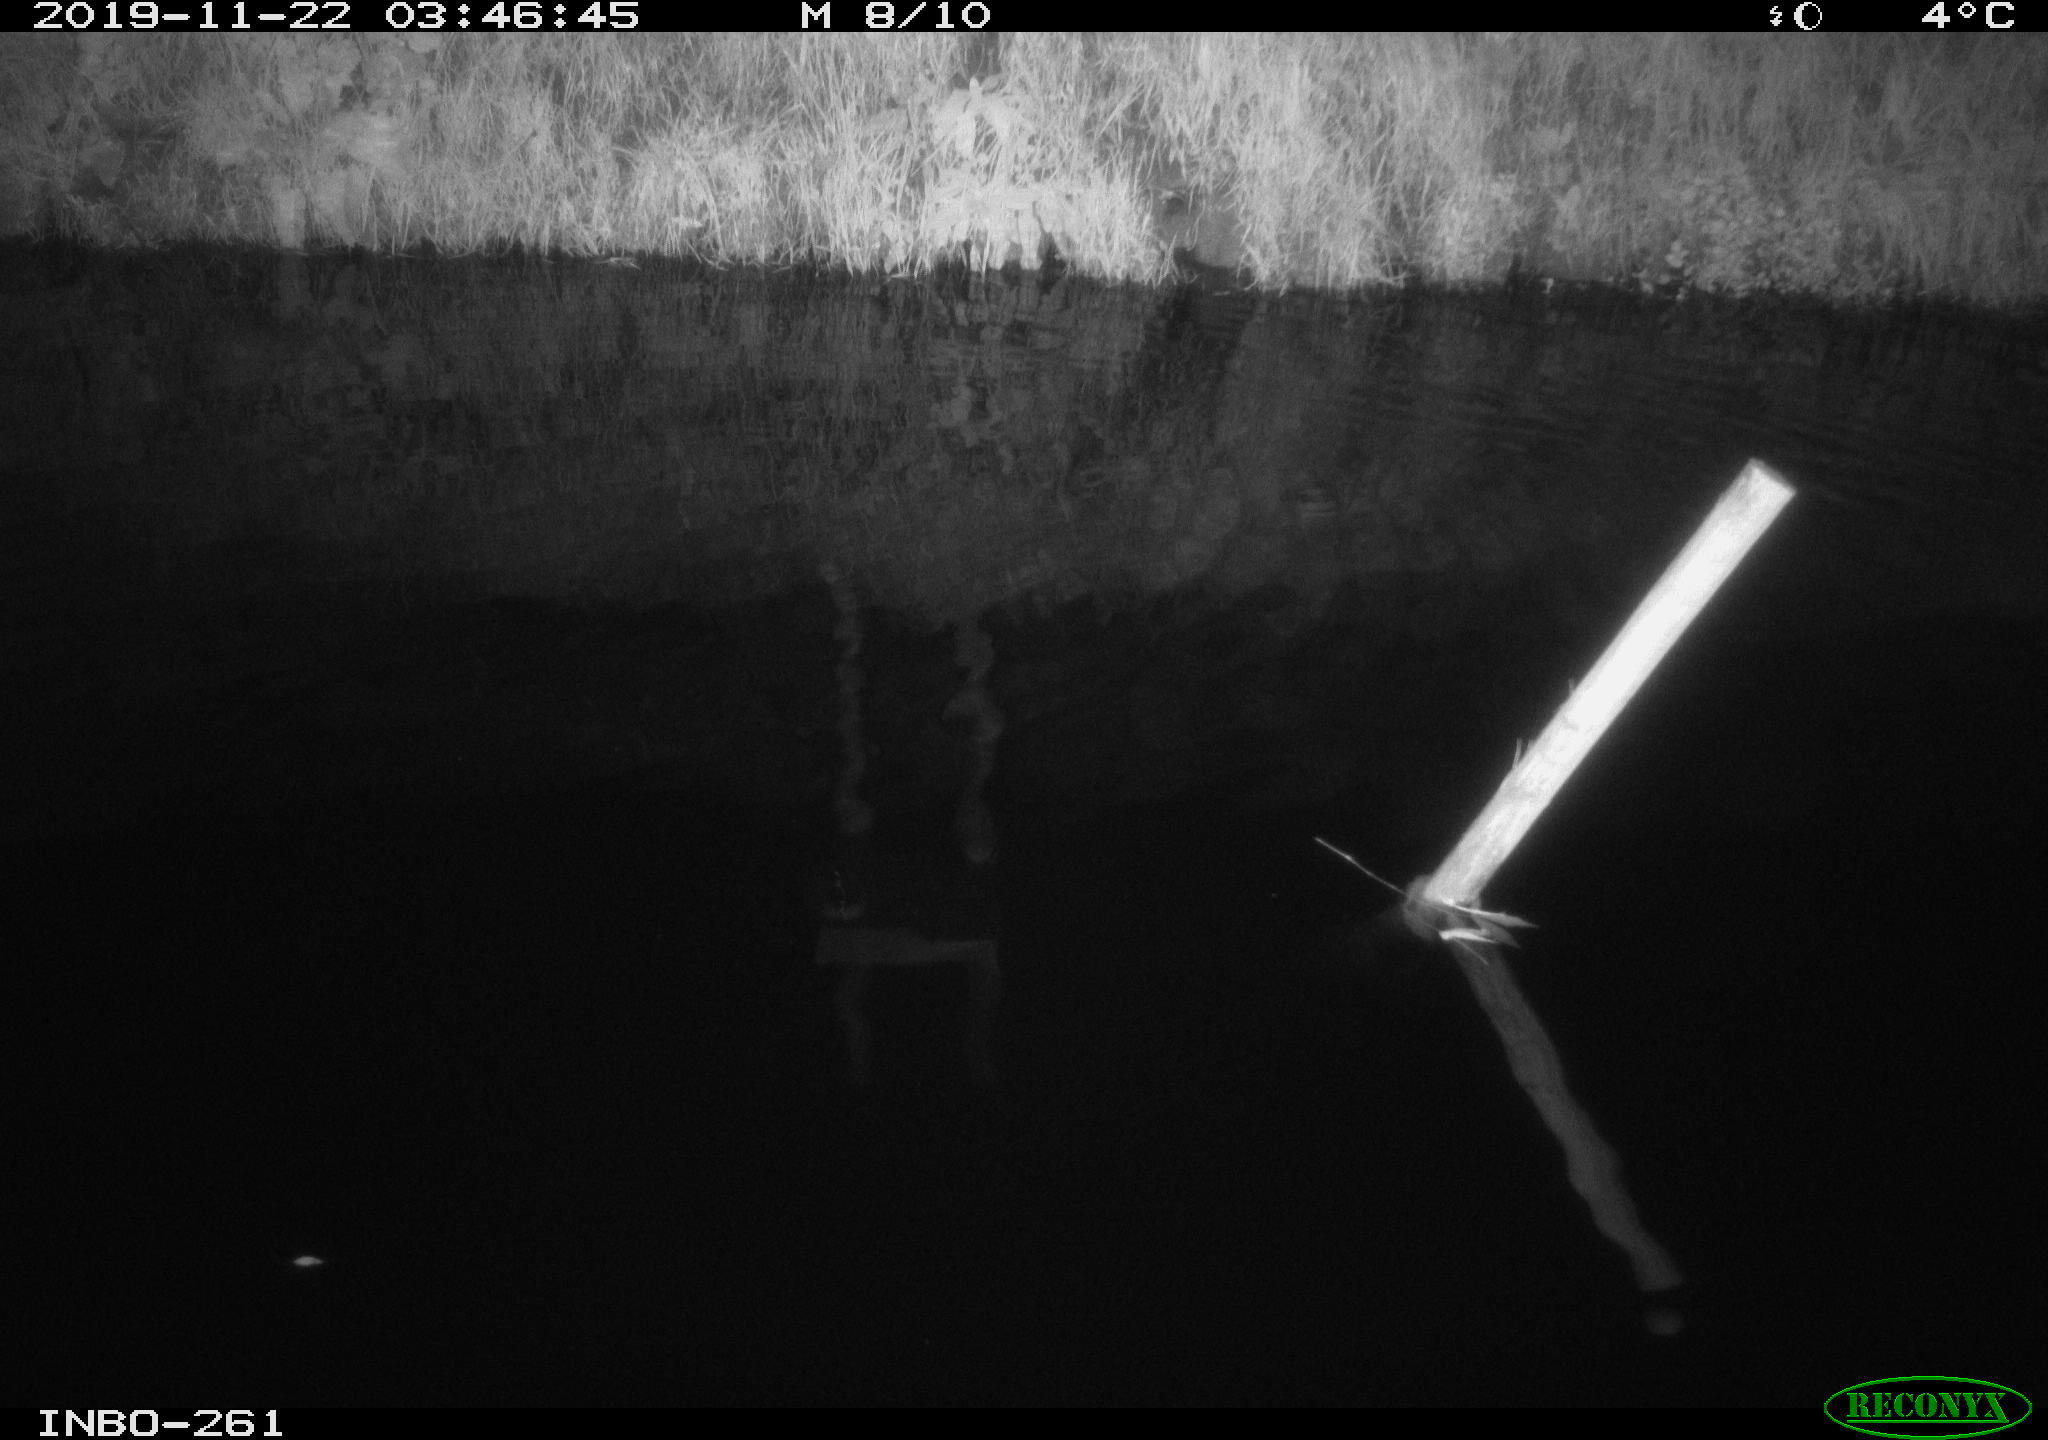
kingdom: Animalia
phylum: Chordata
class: Aves
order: Anseriformes
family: Anatidae
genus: Anas
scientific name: Anas platyrhynchos
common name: Mallard
